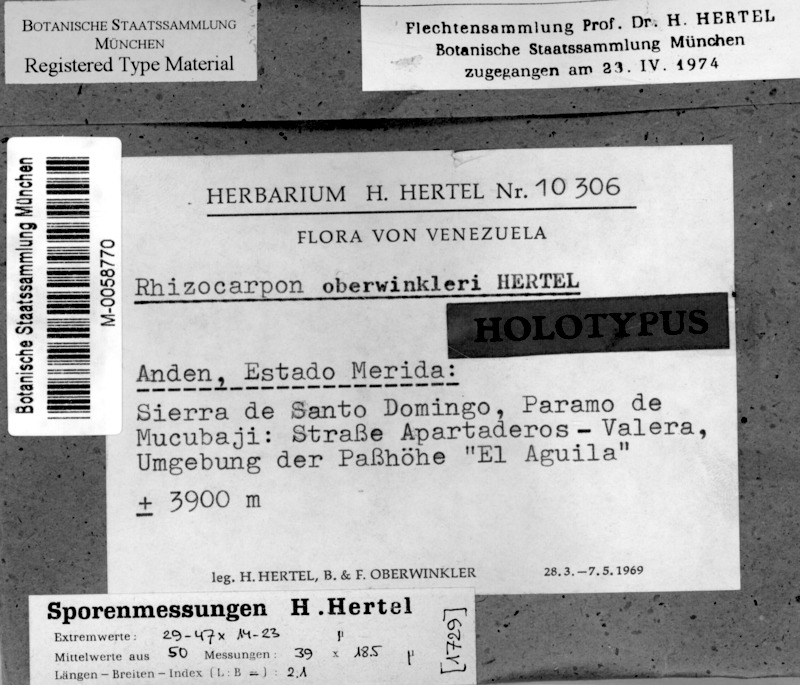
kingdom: Fungi
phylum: Ascomycota
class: Lecanoromycetes
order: Rhizocarpales
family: Rhizocarpaceae
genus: Rhizocarpon
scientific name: Rhizocarpon
